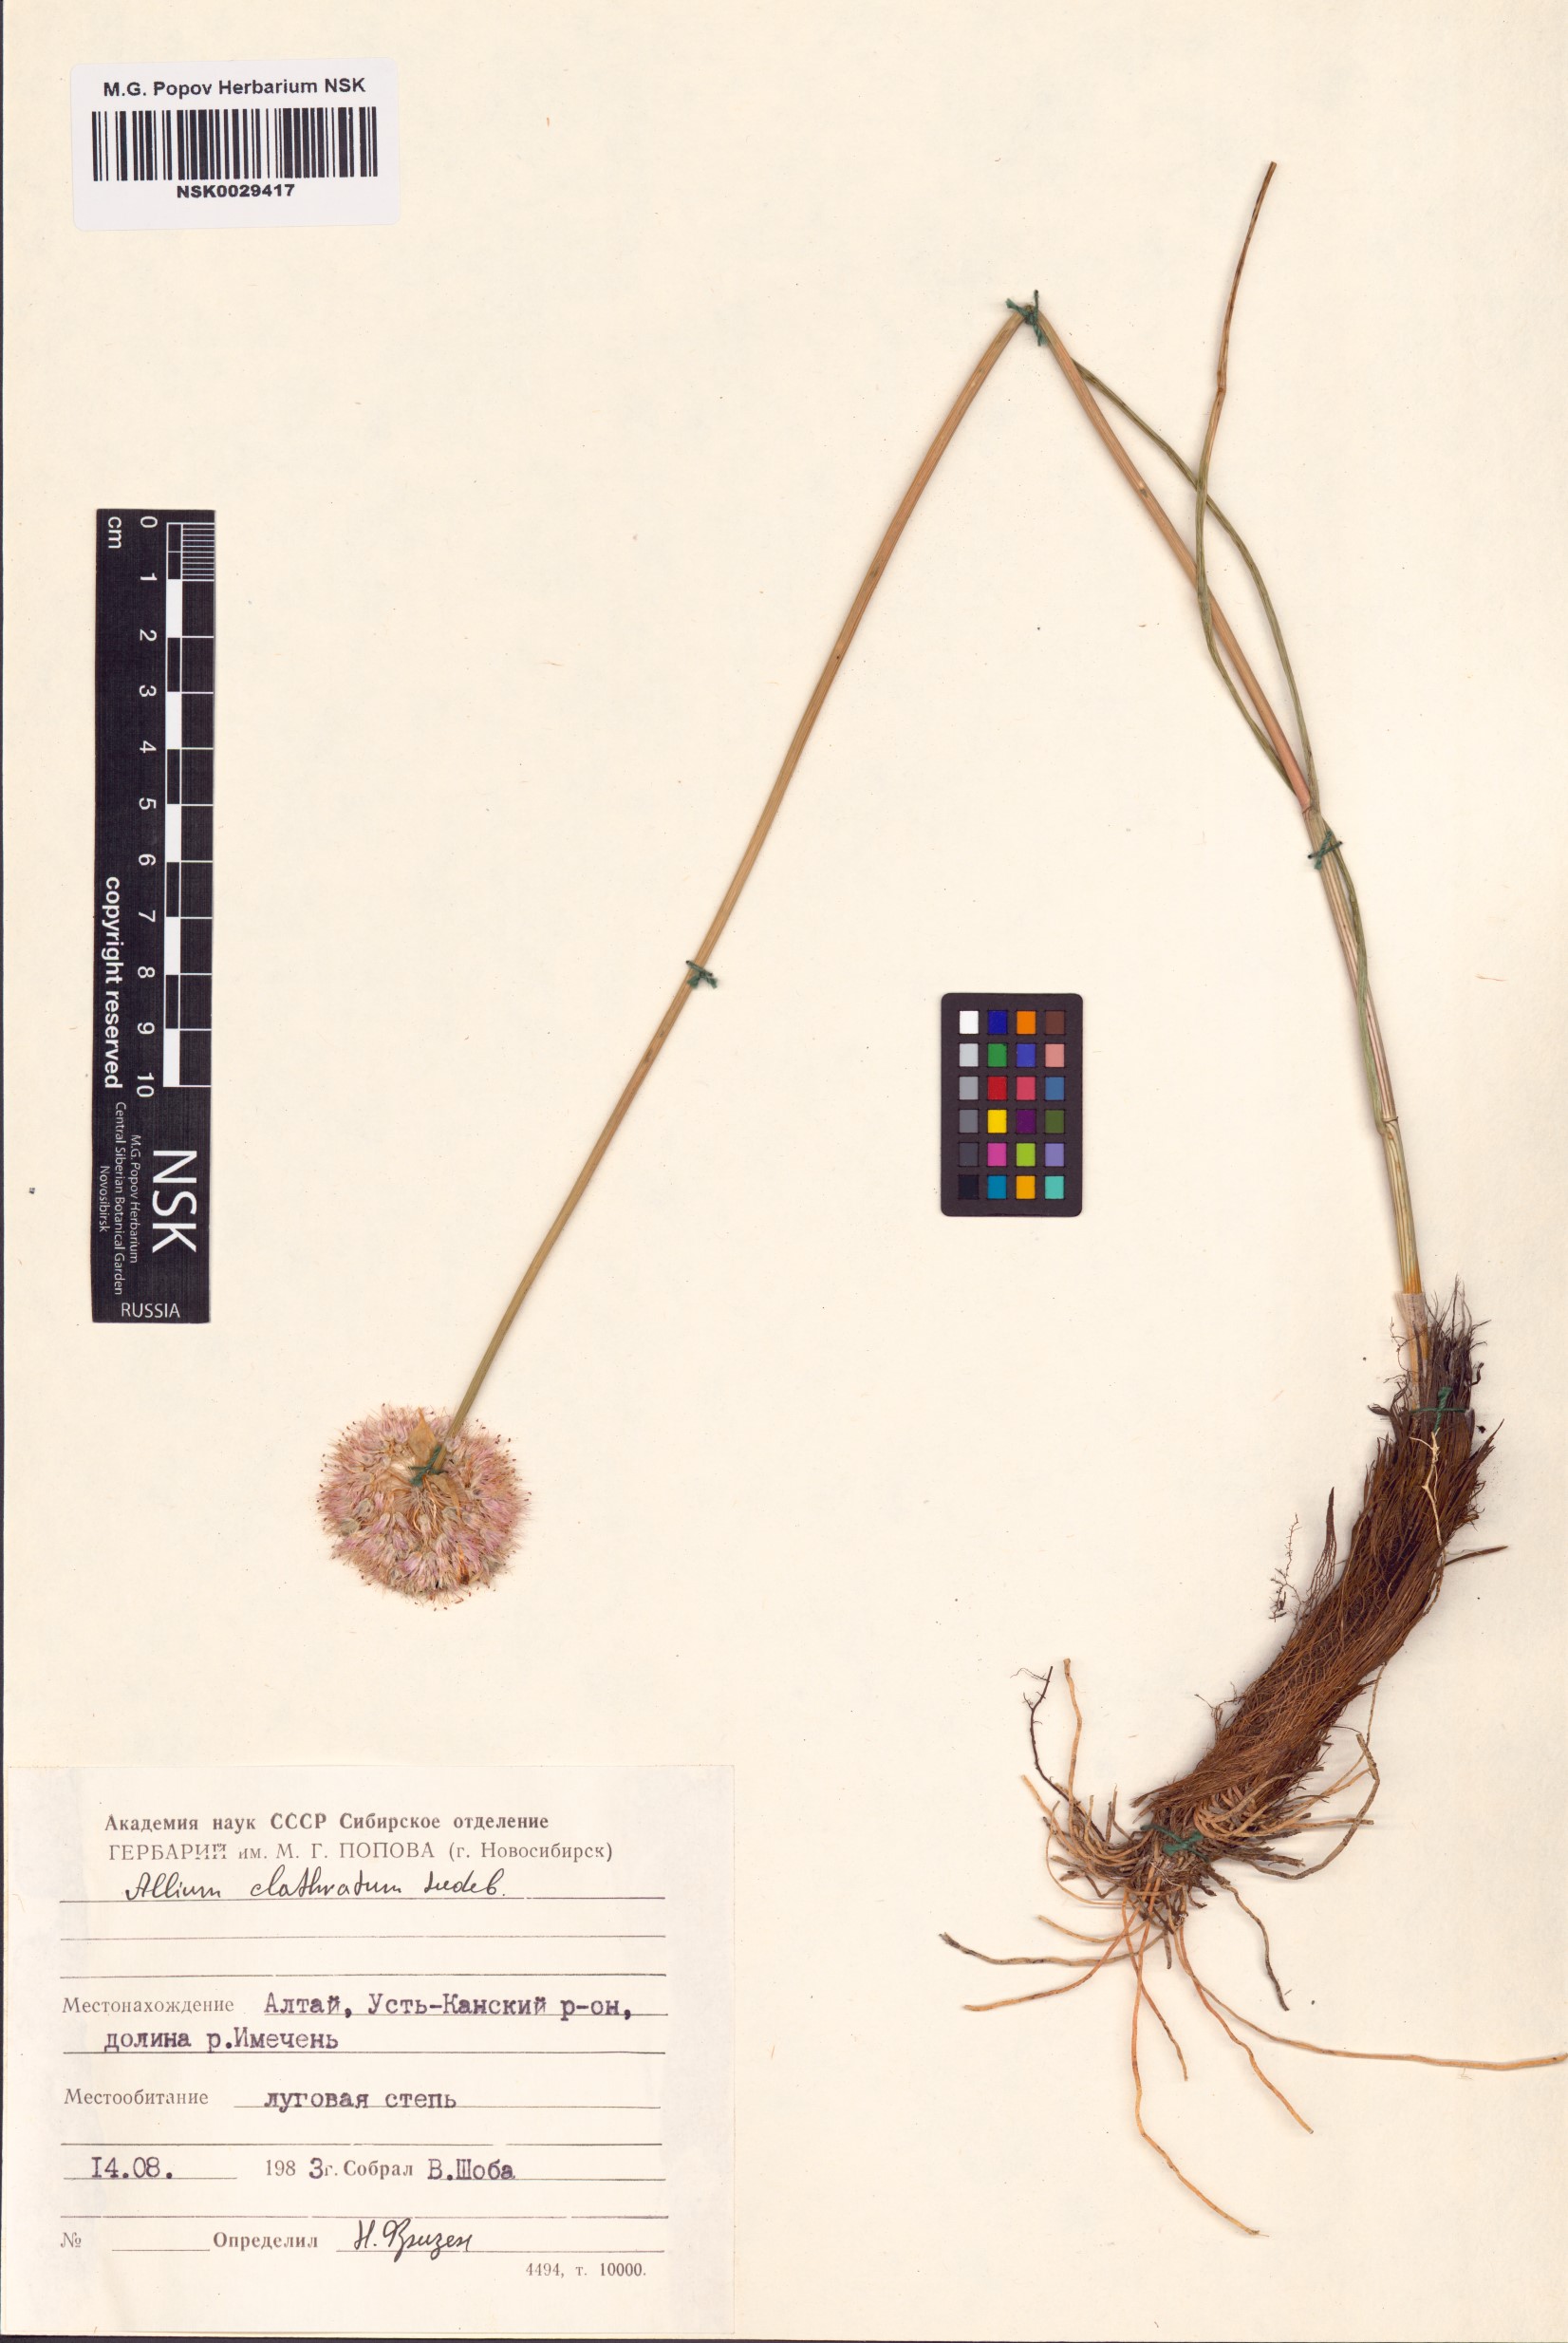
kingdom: Plantae
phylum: Tracheophyta
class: Liliopsida
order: Asparagales
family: Amaryllidaceae
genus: Allium
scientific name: Allium clathratum
